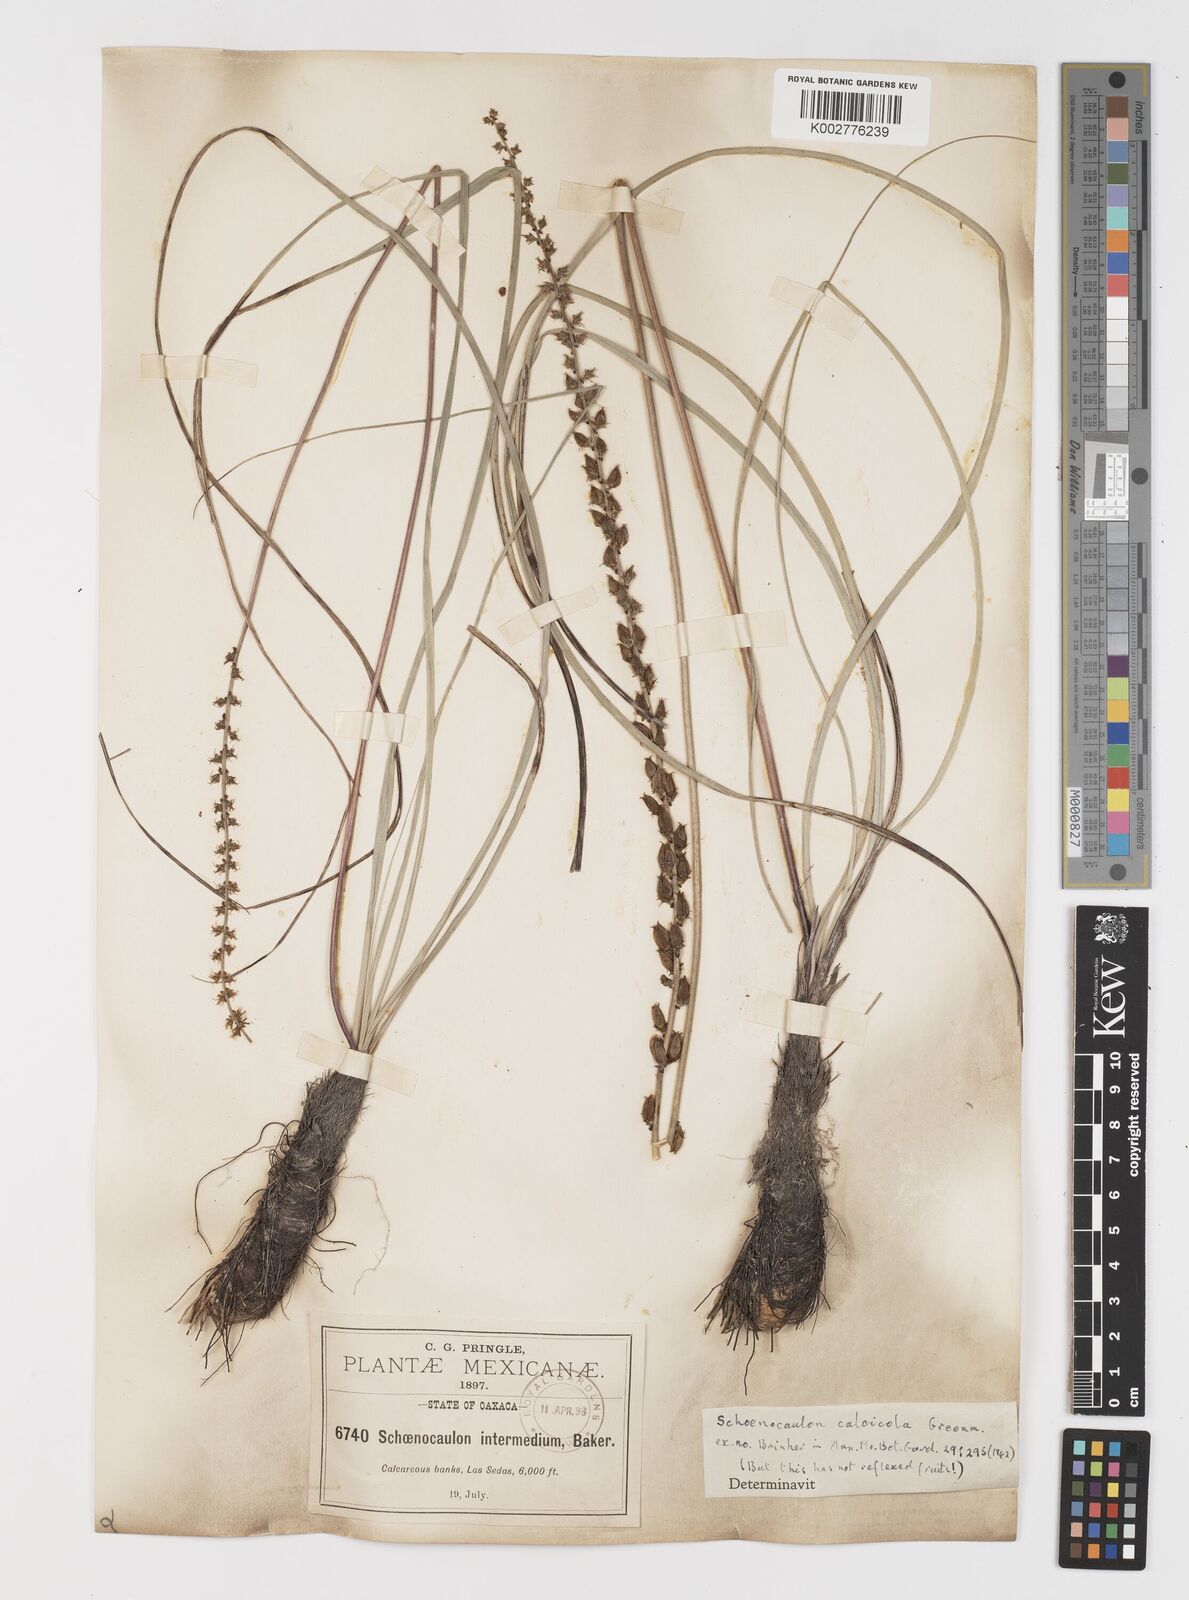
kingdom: Plantae
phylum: Tracheophyta
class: Liliopsida
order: Liliales
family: Melanthiaceae
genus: Schoenocaulon
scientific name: Schoenocaulon calcicola
